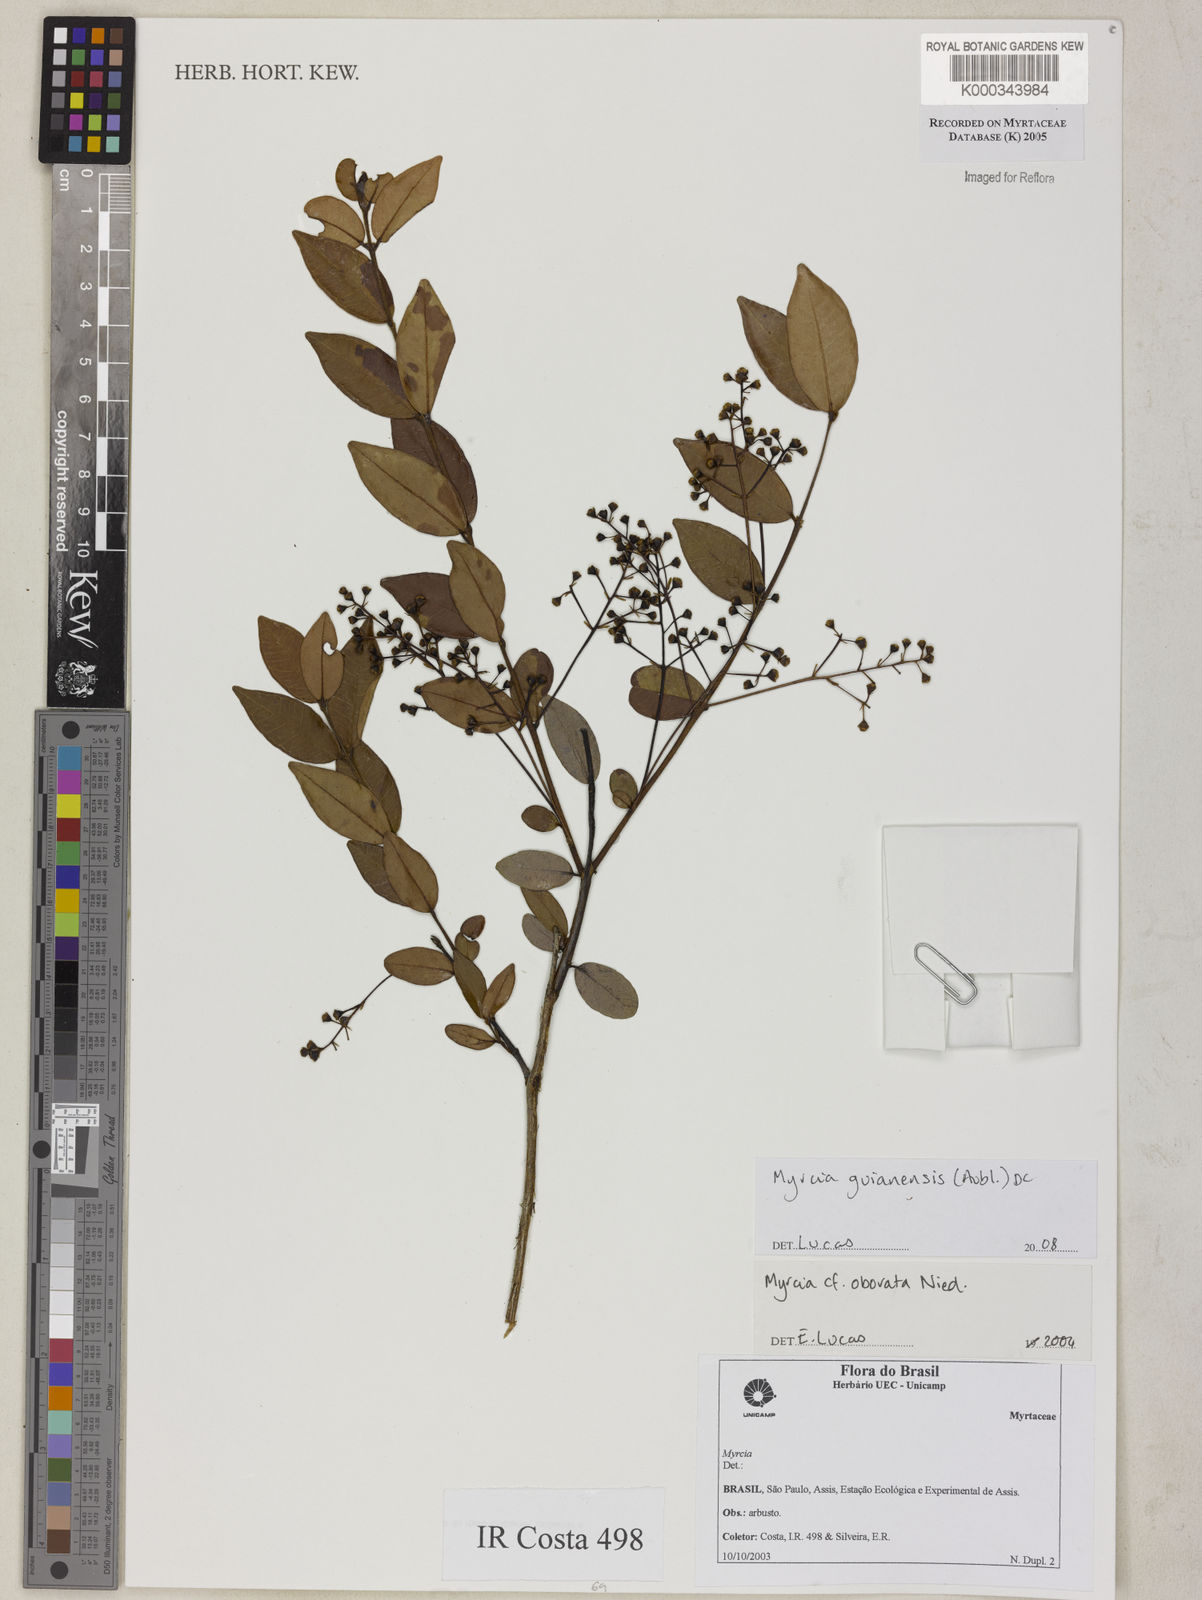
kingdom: Plantae
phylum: Tracheophyta
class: Magnoliopsida
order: Myrtales
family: Myrtaceae
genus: Myrcia
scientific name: Myrcia obovata
